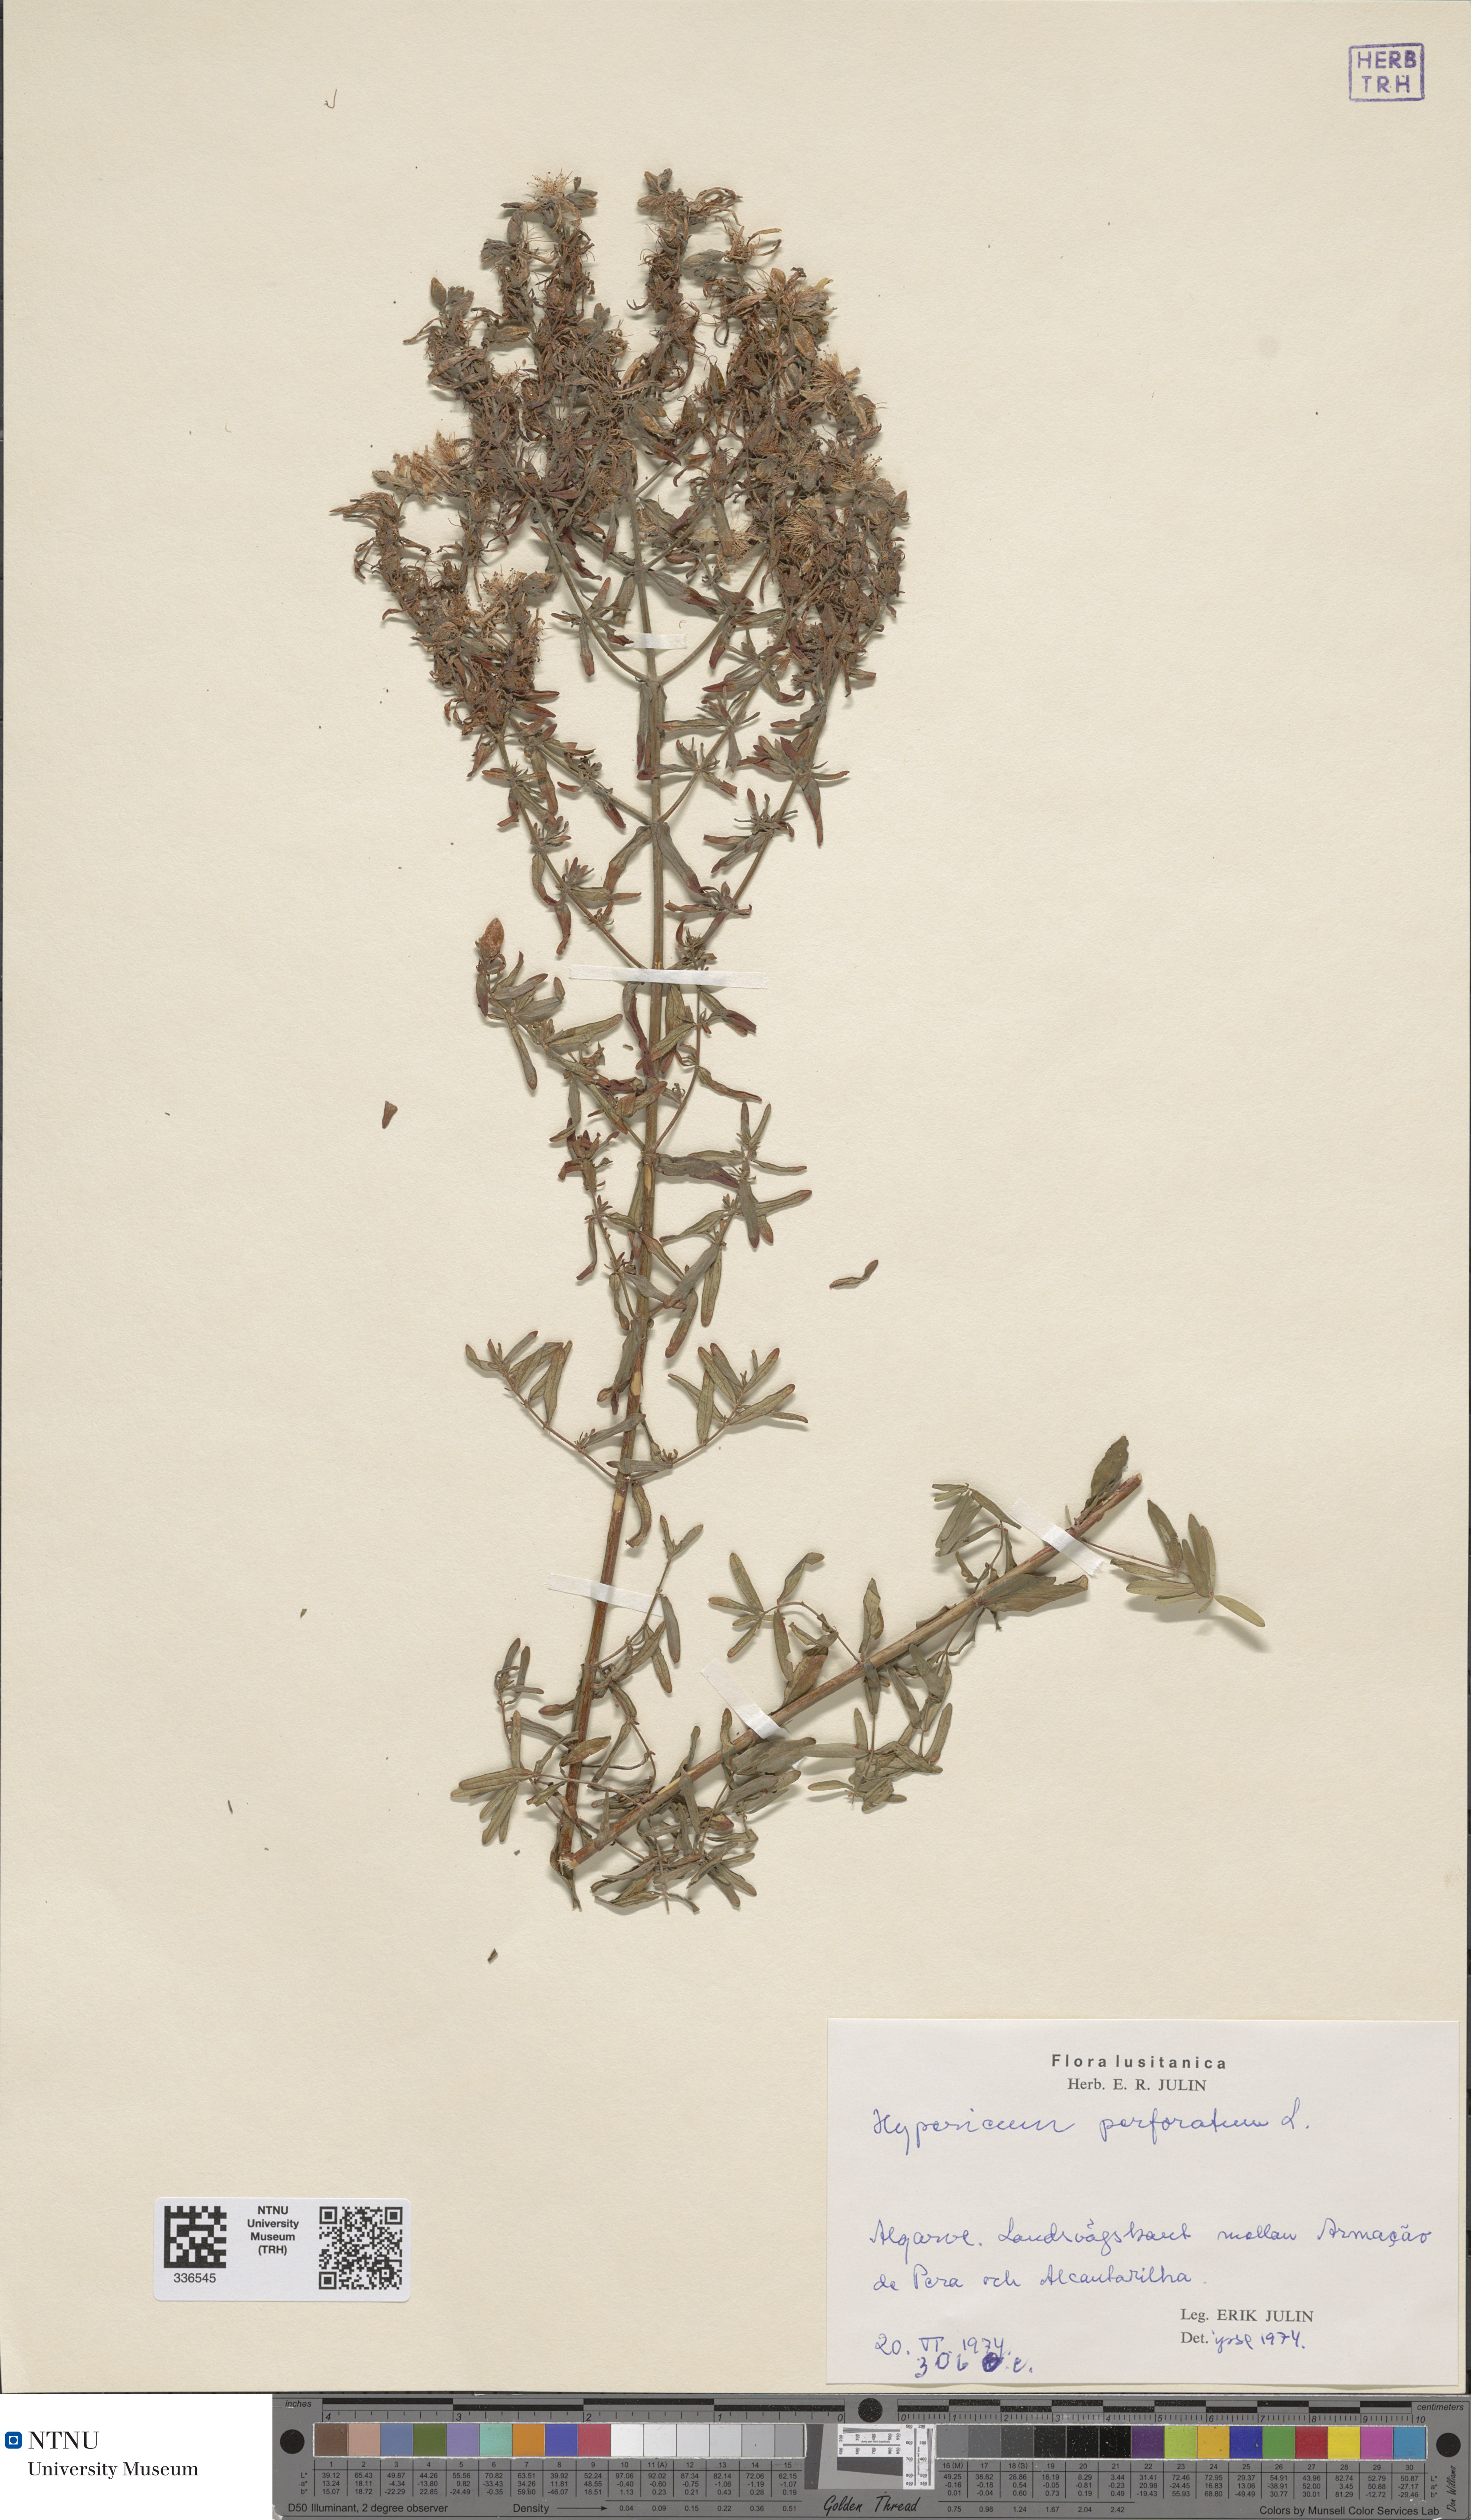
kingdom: Plantae
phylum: Tracheophyta
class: Magnoliopsida
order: Malpighiales
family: Hypericaceae
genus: Hypericum
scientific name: Hypericum perforatum
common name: Common st. johnswort
